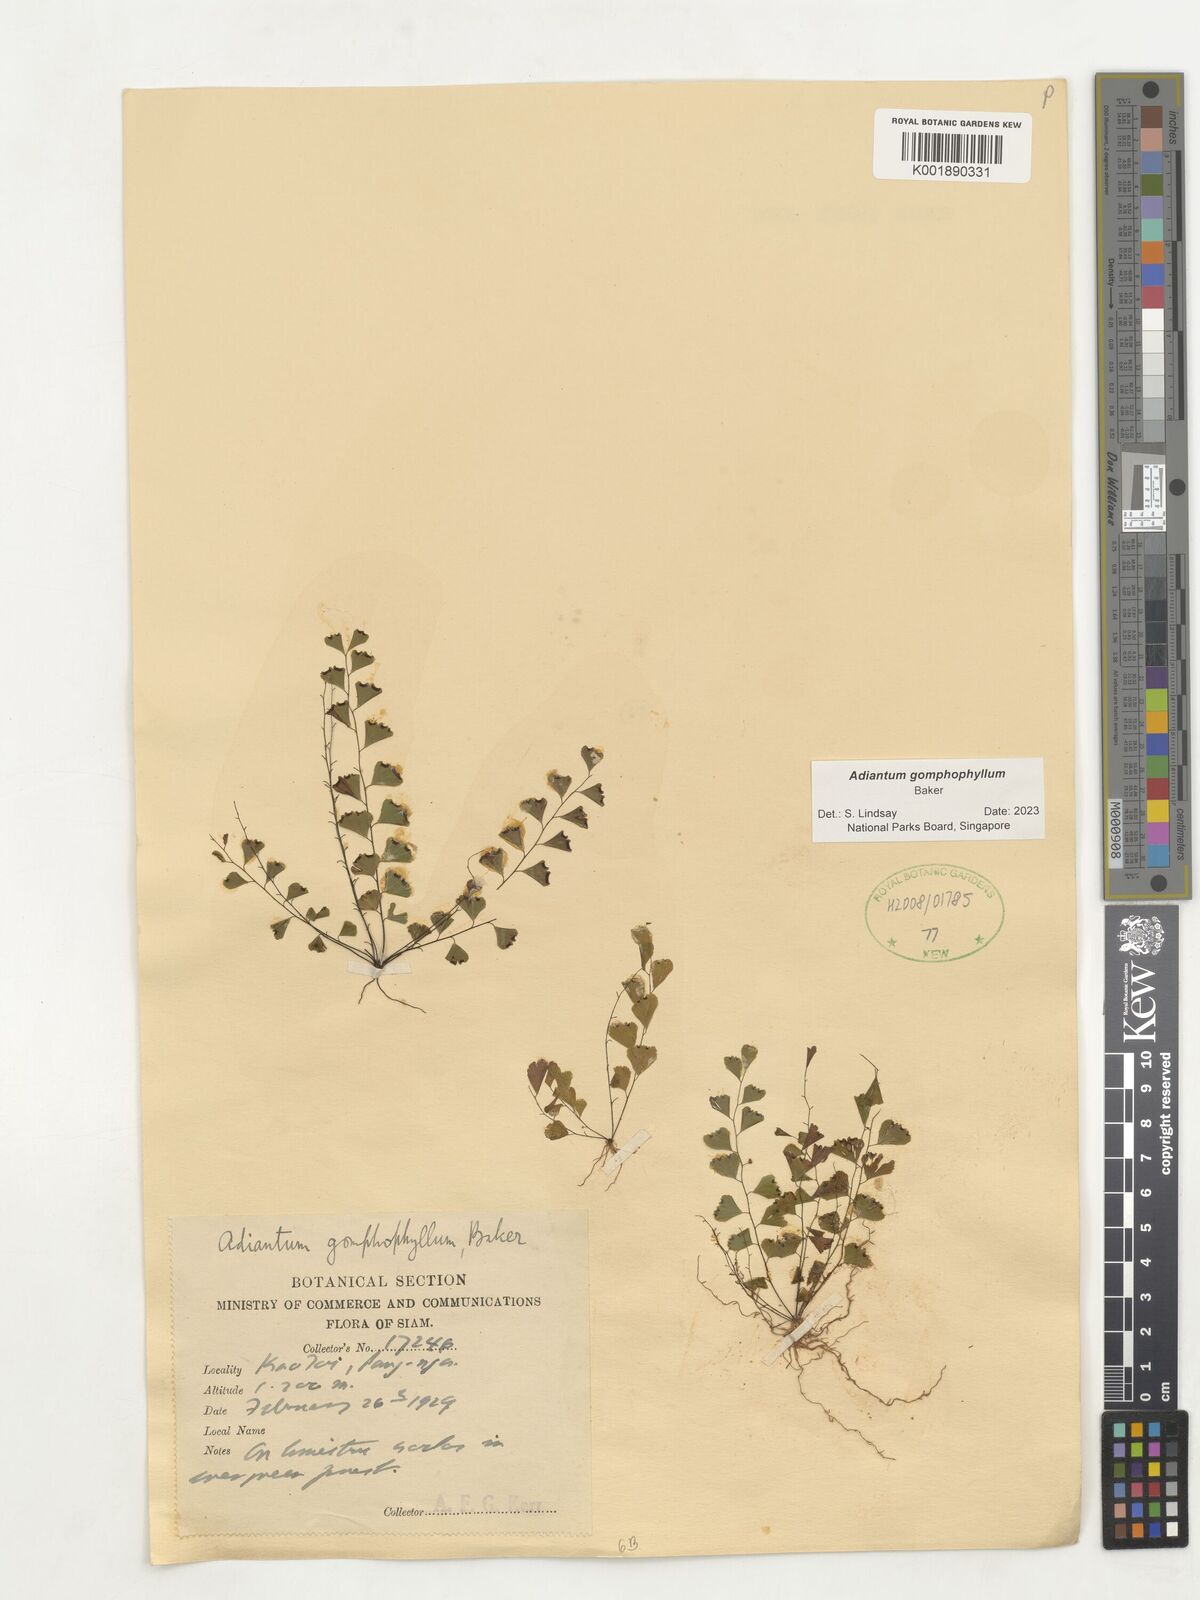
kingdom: Plantae
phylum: Tracheophyta
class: Polypodiopsida
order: Polypodiales
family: Pteridaceae
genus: Adiantum
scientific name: Adiantum gomphophyllum
